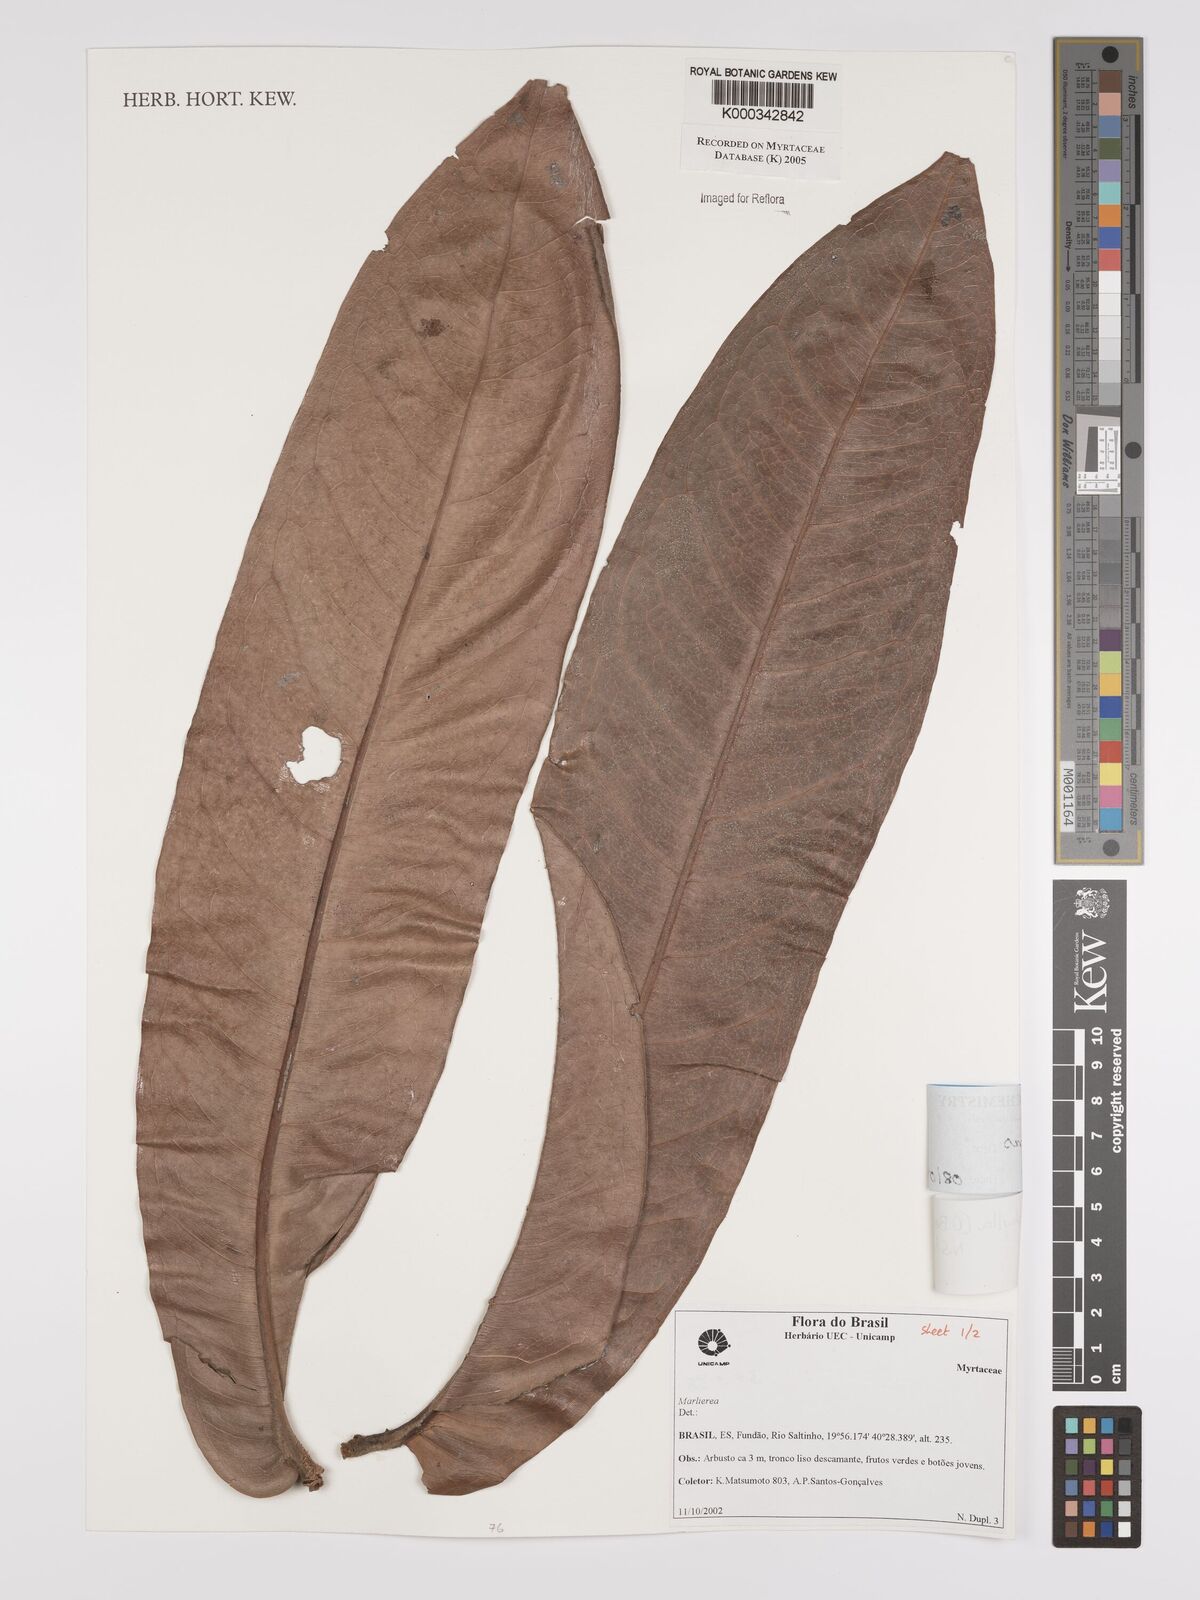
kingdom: Plantae
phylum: Tracheophyta
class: Magnoliopsida
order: Myrtales
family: Myrtaceae
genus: Myrcia
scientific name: Myrcia eumecephylla
